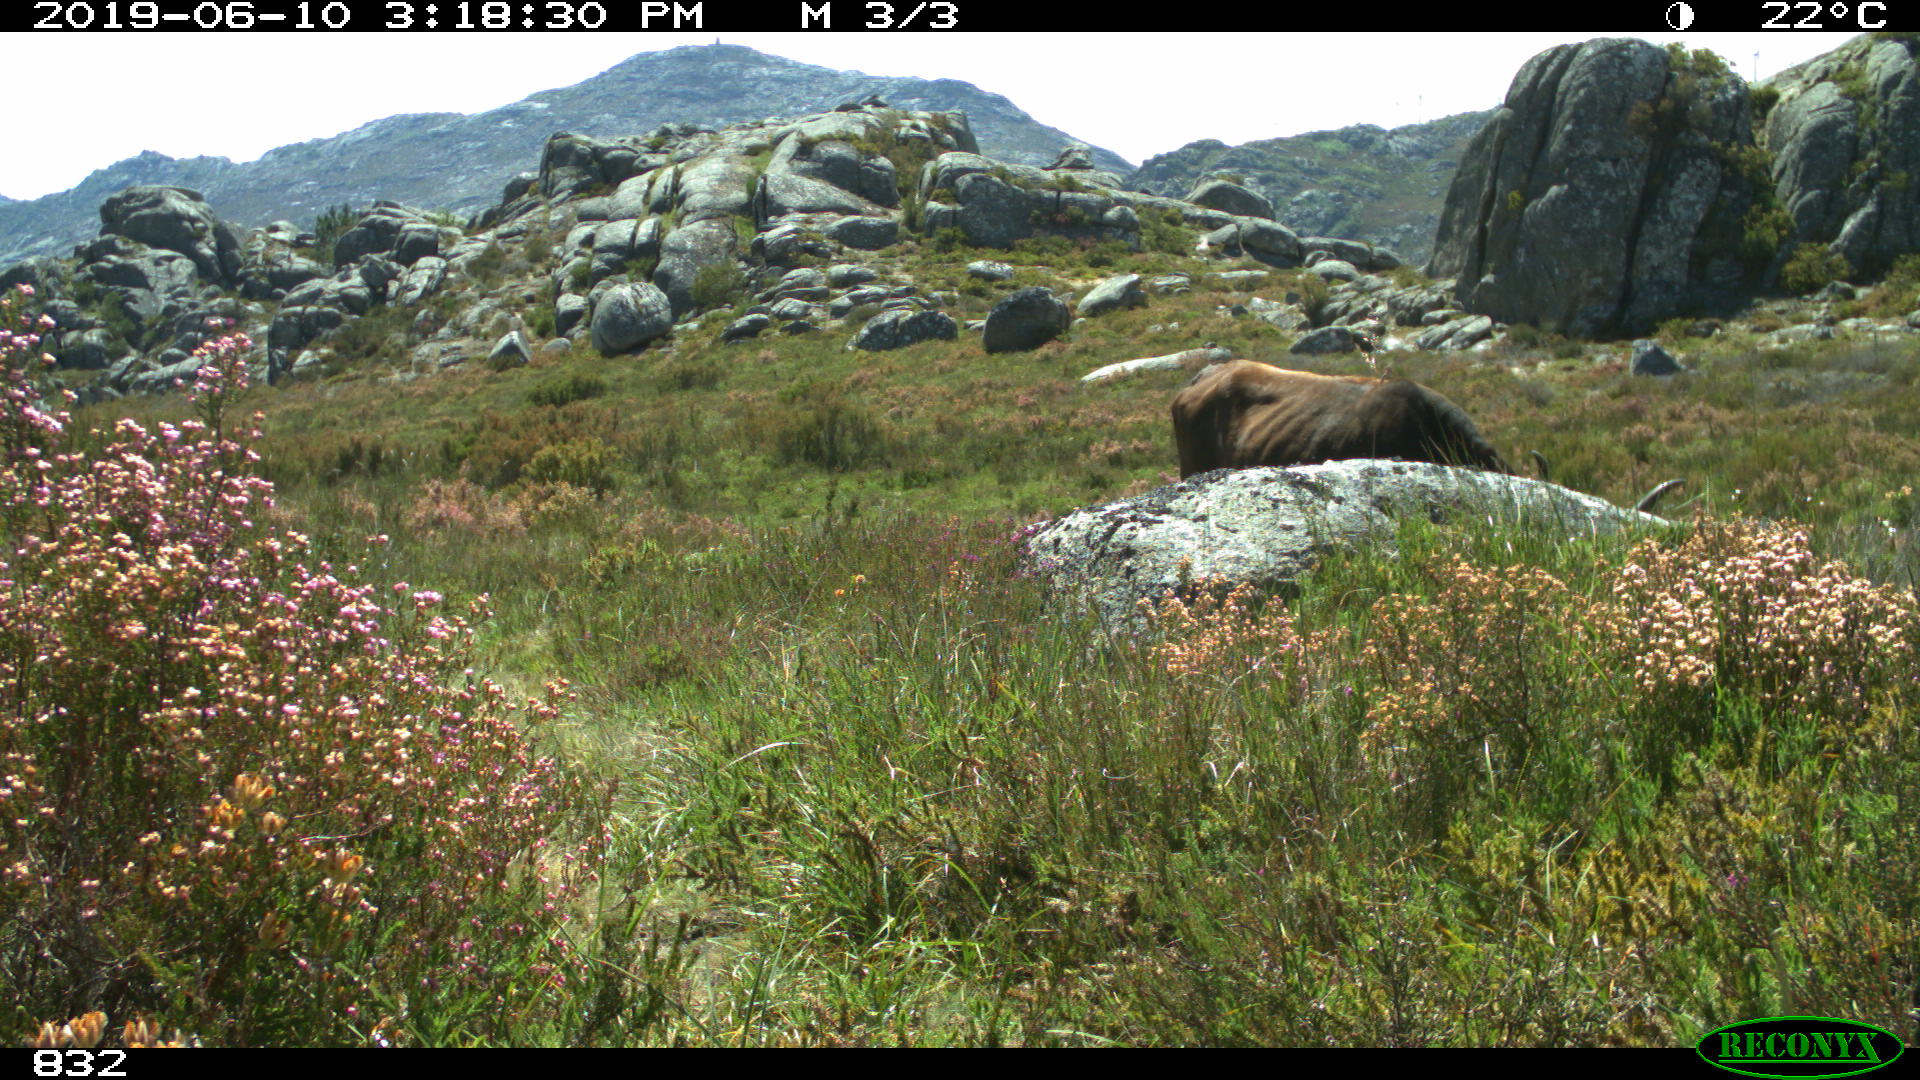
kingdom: Animalia
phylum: Chordata
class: Mammalia
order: Artiodactyla
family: Bovidae
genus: Bos
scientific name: Bos taurus
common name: Domesticated cattle
